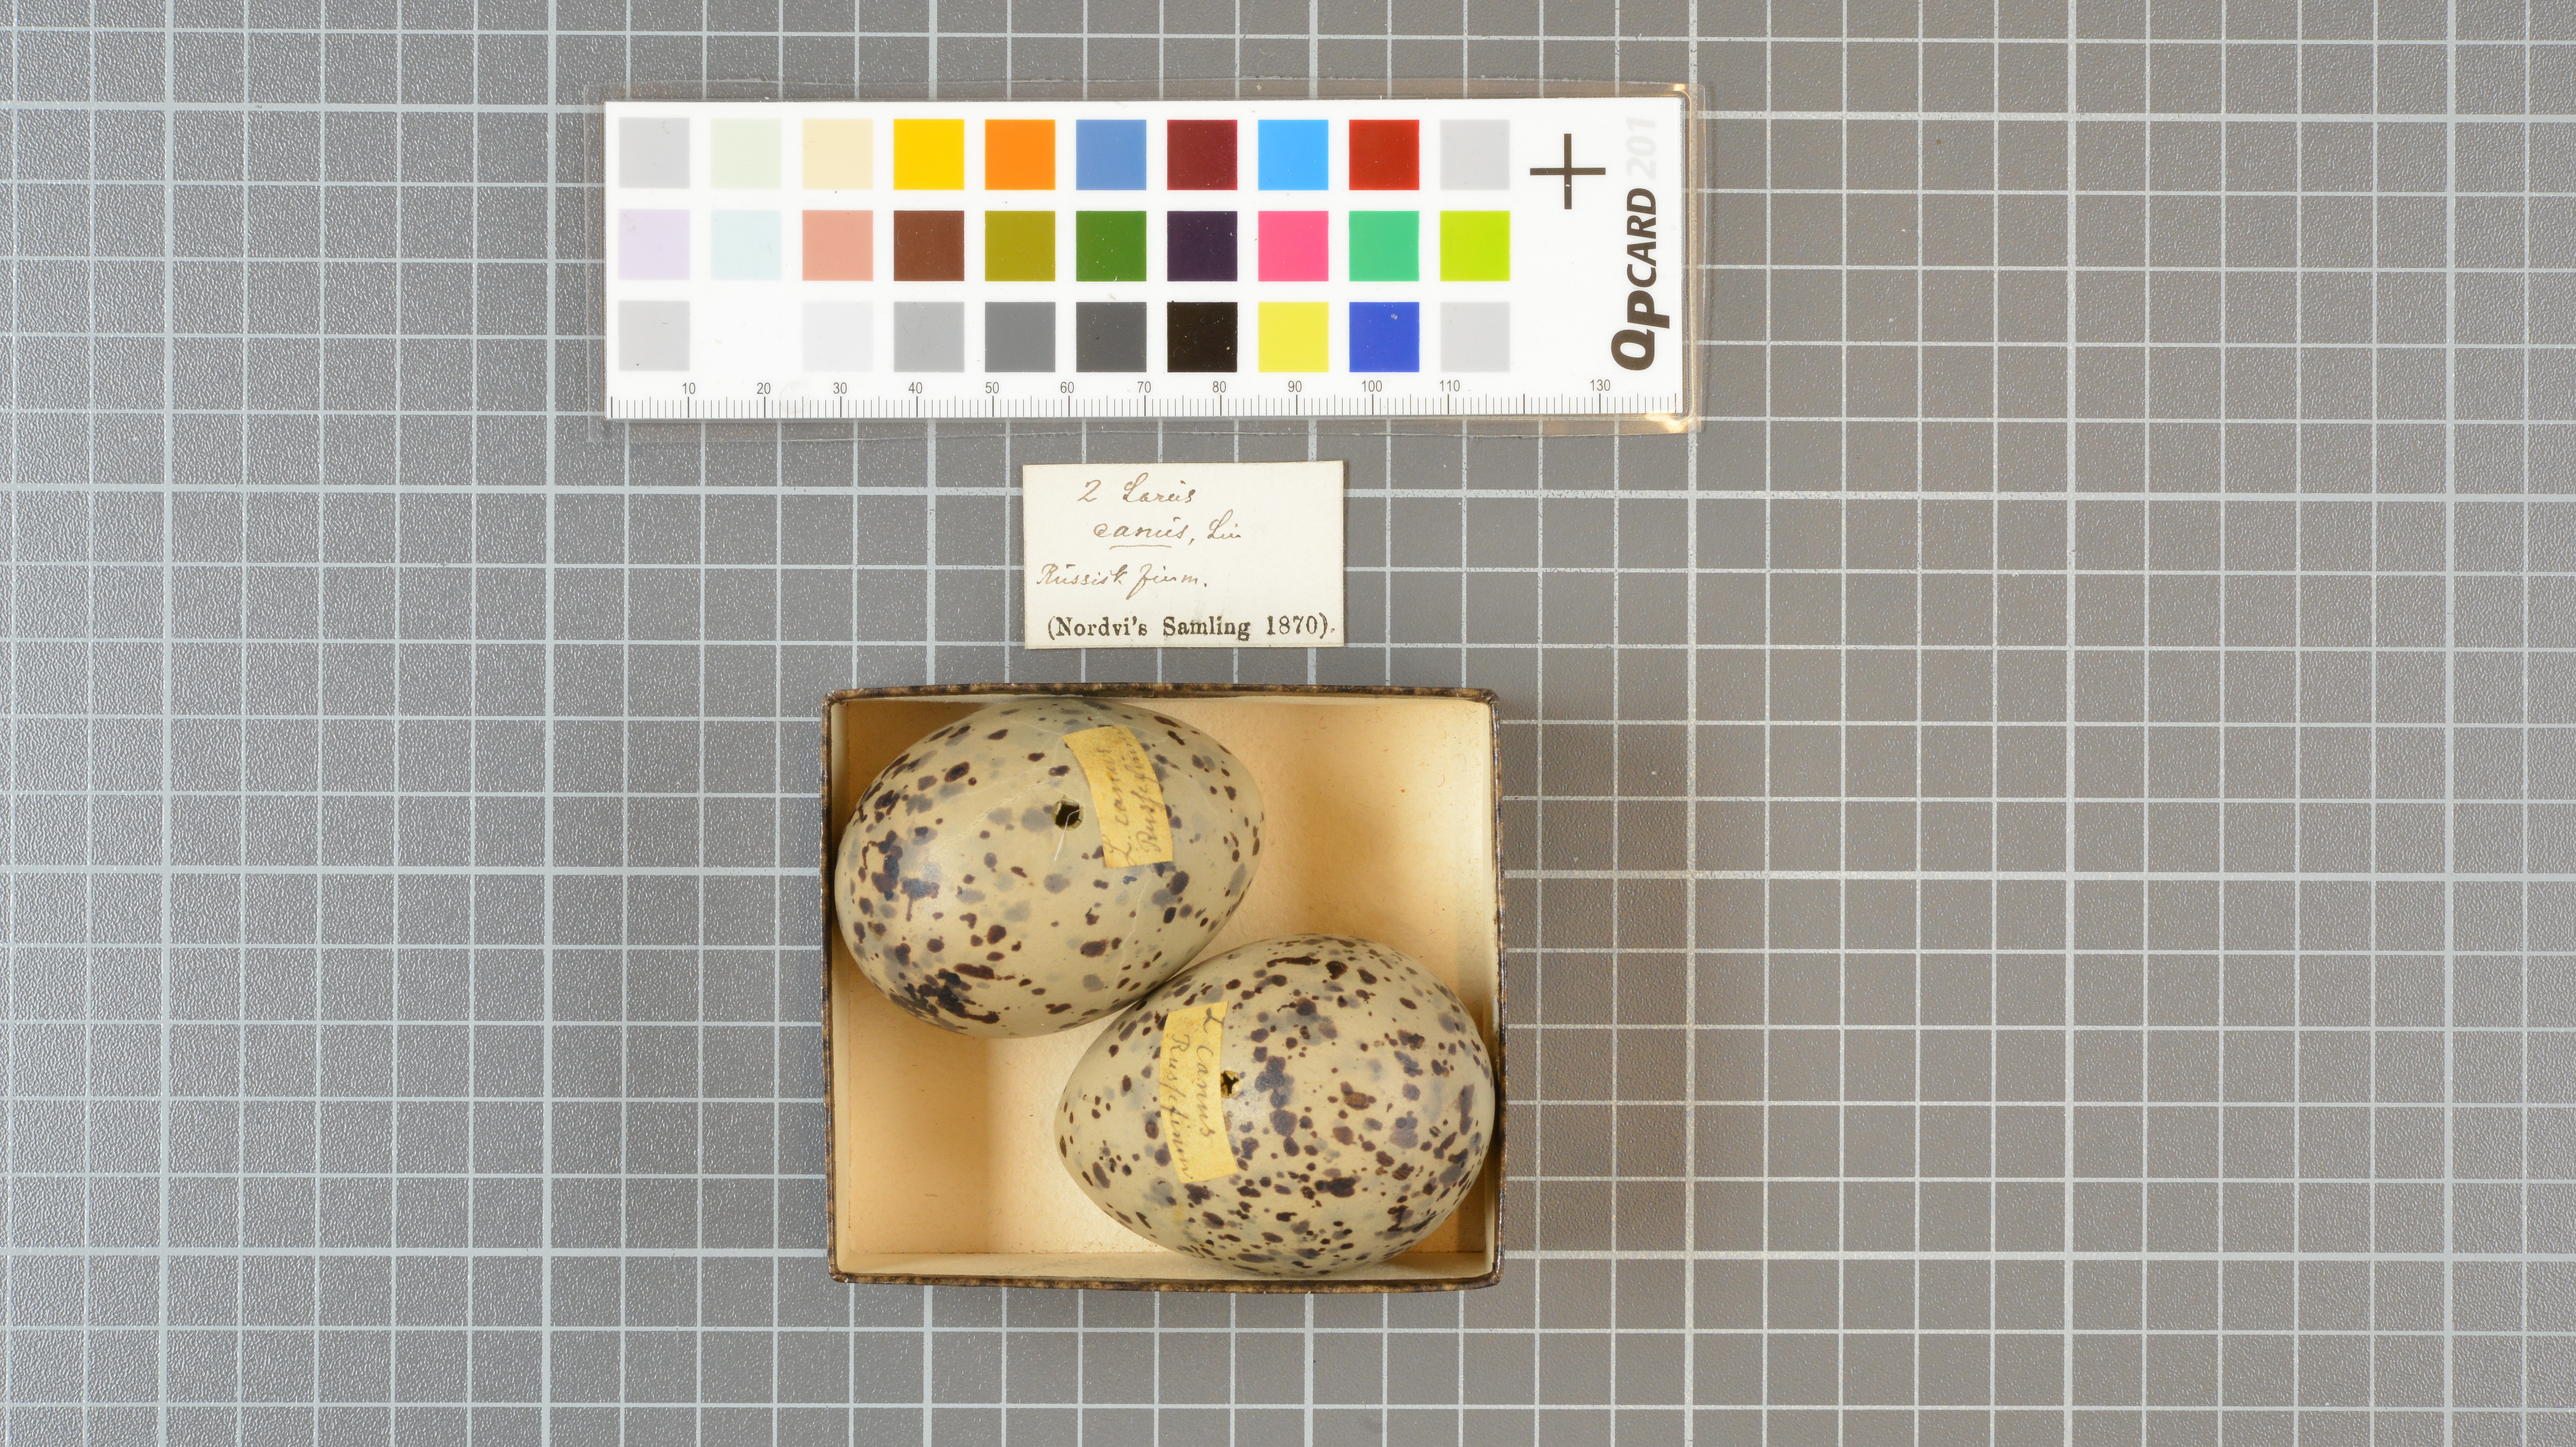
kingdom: Animalia
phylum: Chordata
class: Aves
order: Charadriiformes
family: Laridae
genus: Larus
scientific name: Larus canus
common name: Mew gull
